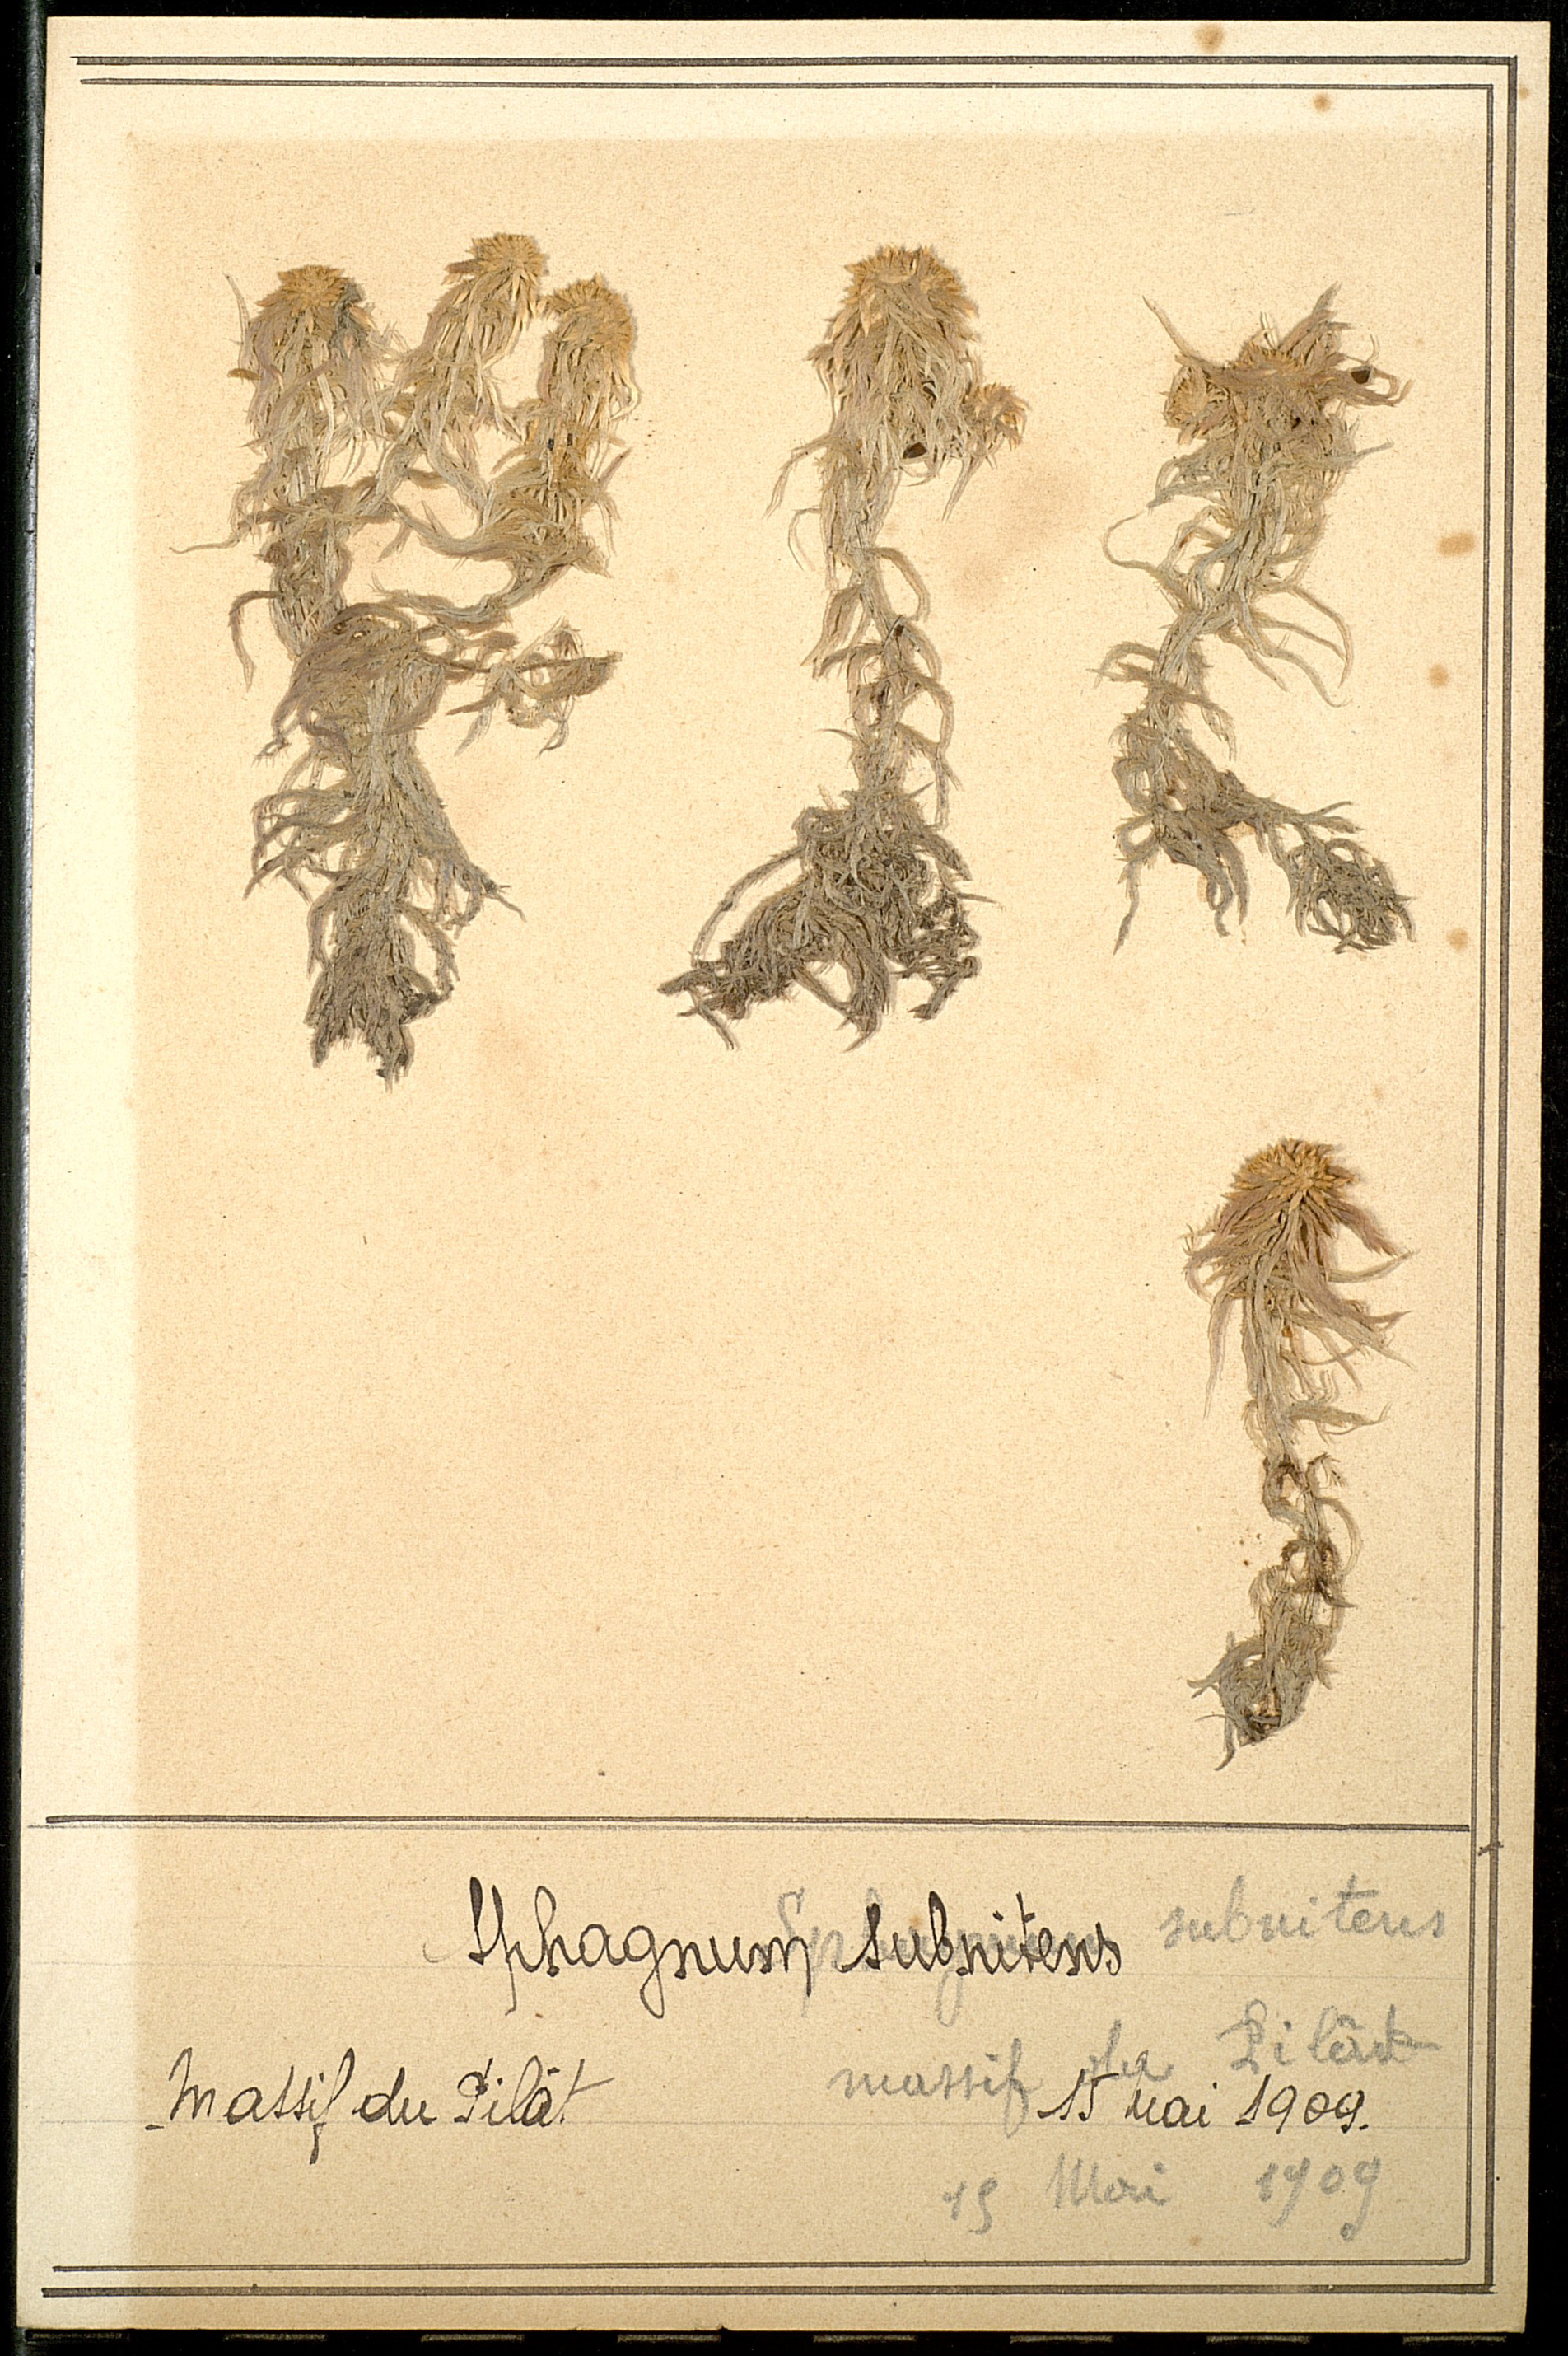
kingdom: Plantae
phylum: Bryophyta
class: Sphagnopsida
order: Sphagnales
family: Sphagnaceae
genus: Sphagnum
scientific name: Sphagnum subnitens
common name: Lustrous bog-moss
